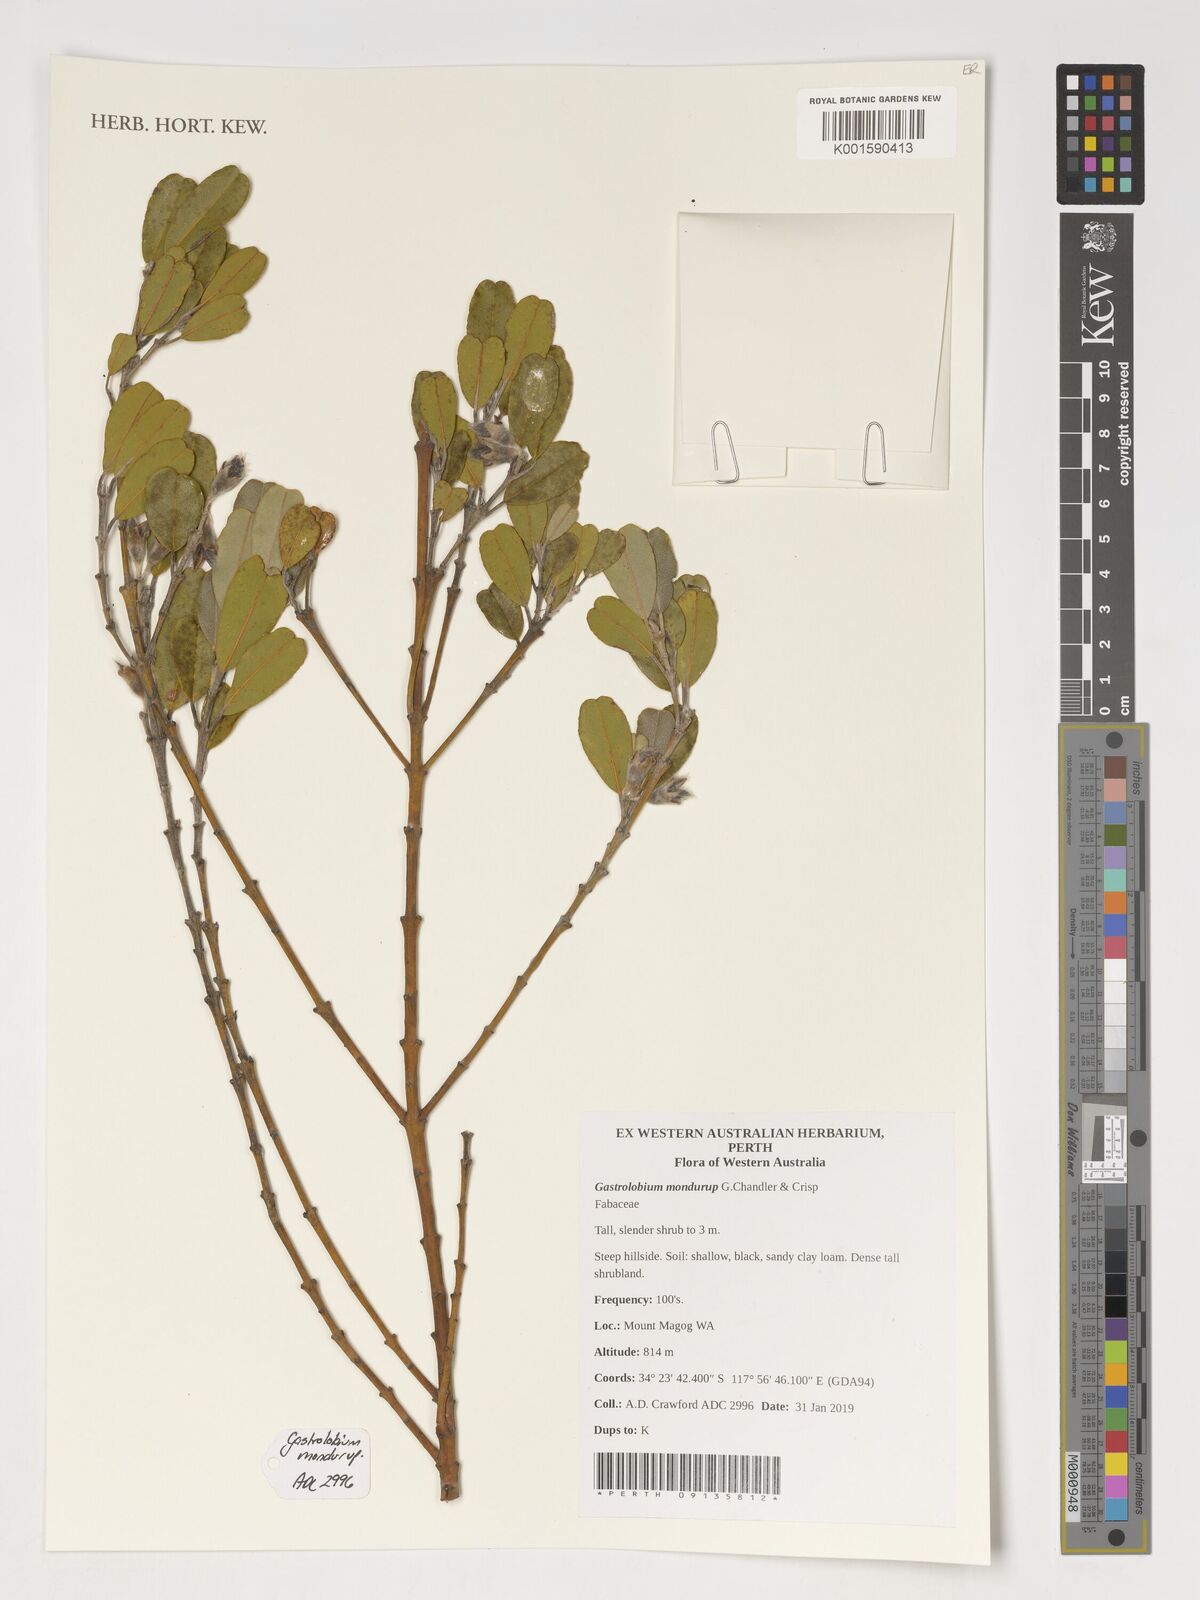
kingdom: Plantae
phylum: Tracheophyta
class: Magnoliopsida
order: Fabales
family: Fabaceae
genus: Gastrolobium
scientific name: Gastrolobium mondurup
